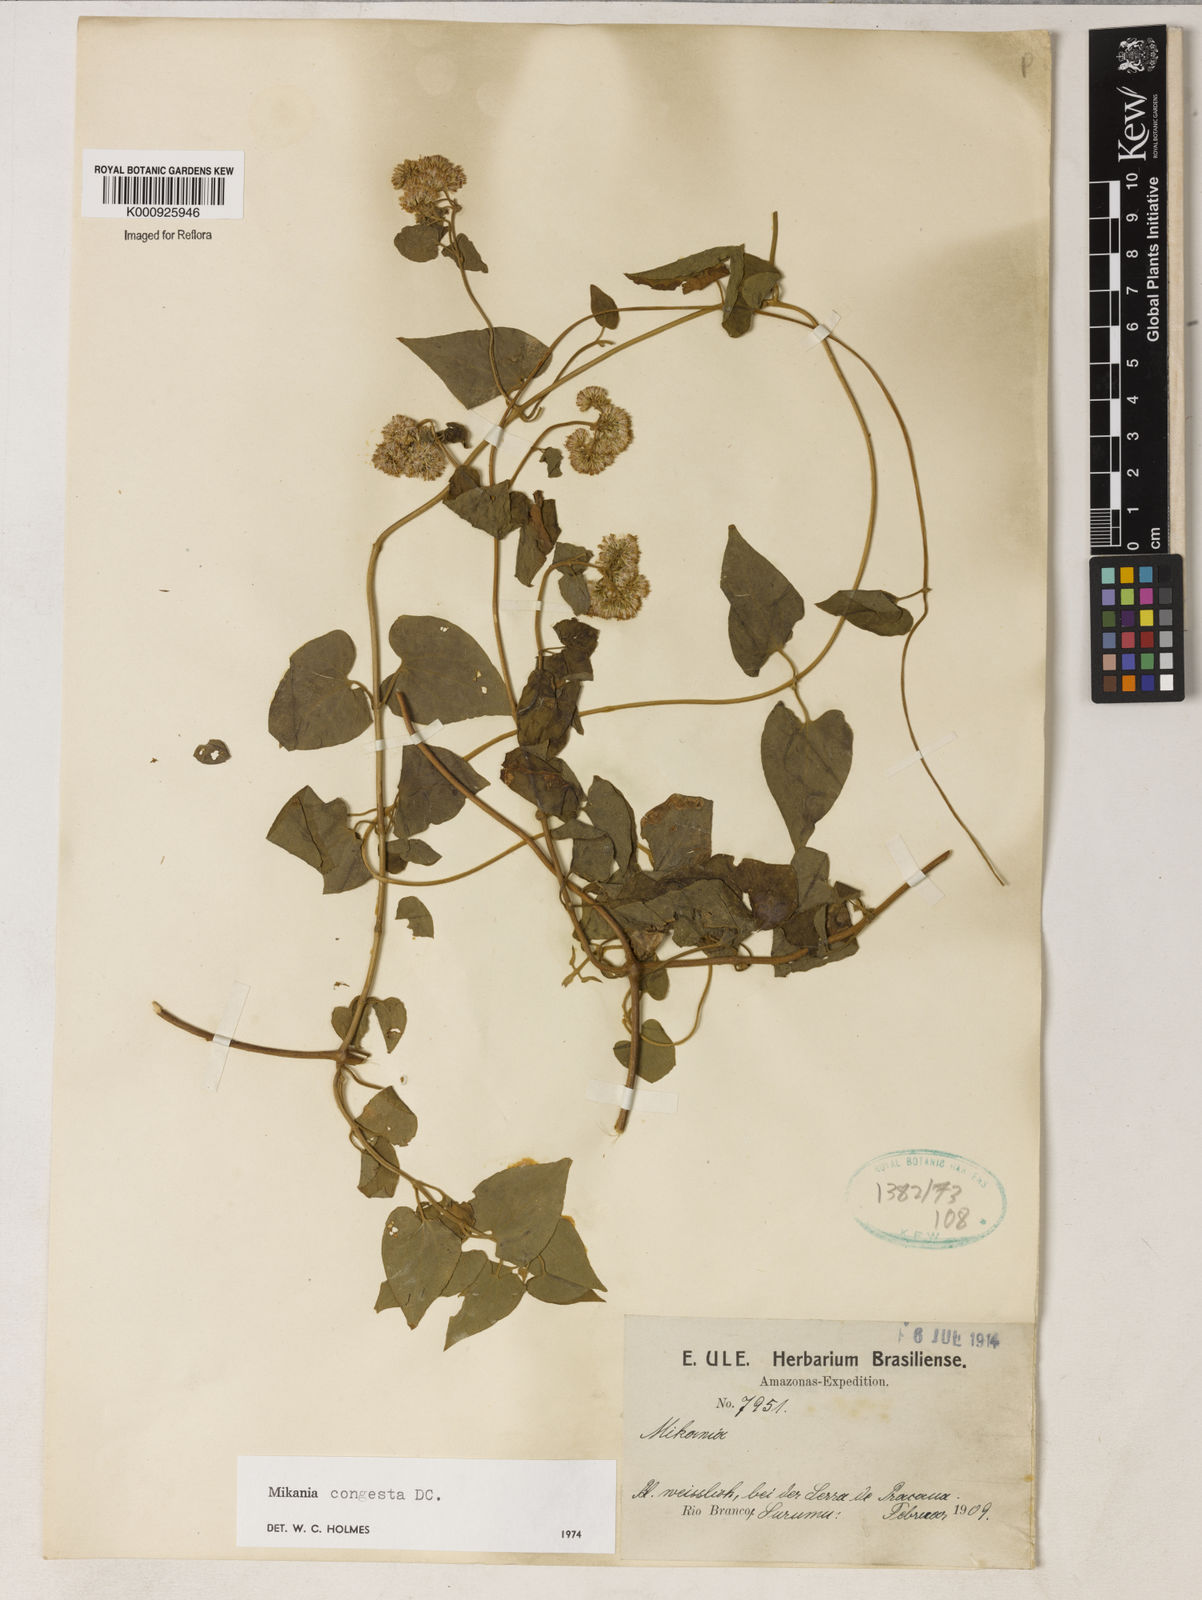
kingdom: Plantae
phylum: Tracheophyta
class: Magnoliopsida
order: Asterales
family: Asteraceae
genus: Mikania
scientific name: Mikania congesta
